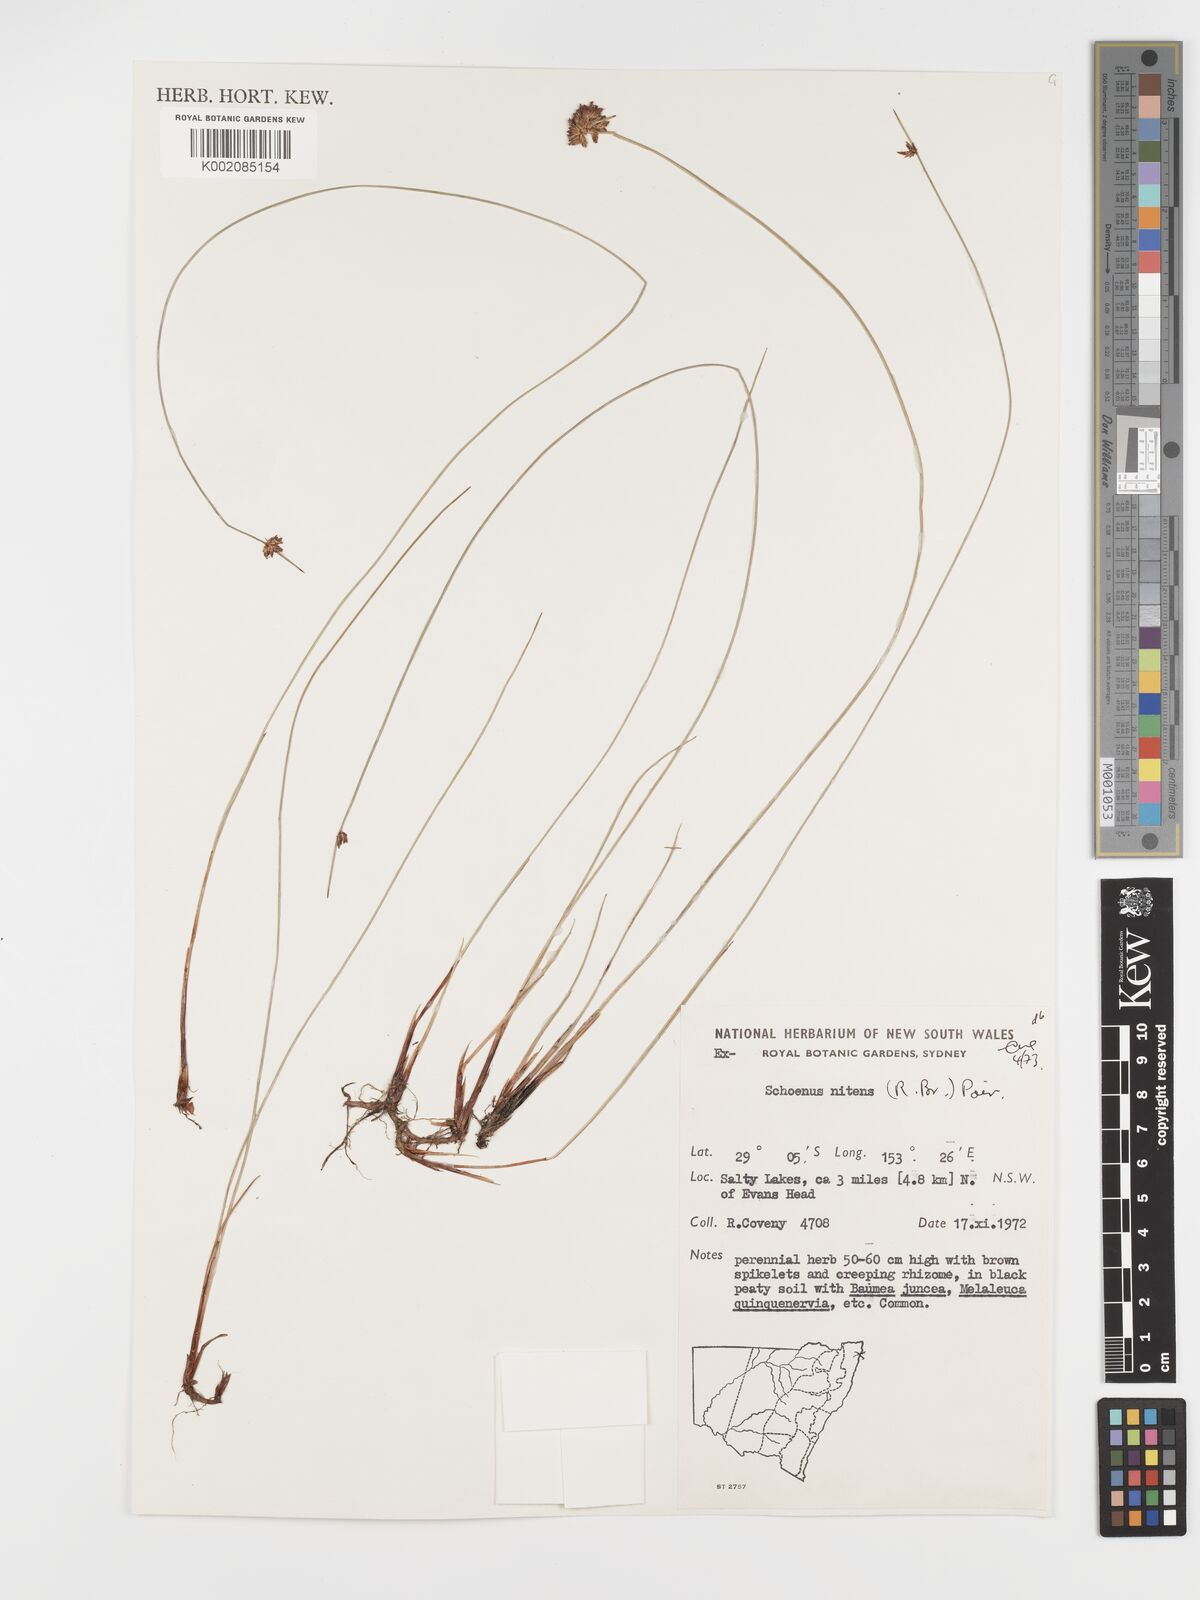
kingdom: Plantae
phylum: Tracheophyta
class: Liliopsida
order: Poales
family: Cyperaceae
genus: Schoenus
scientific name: Schoenus nitens
